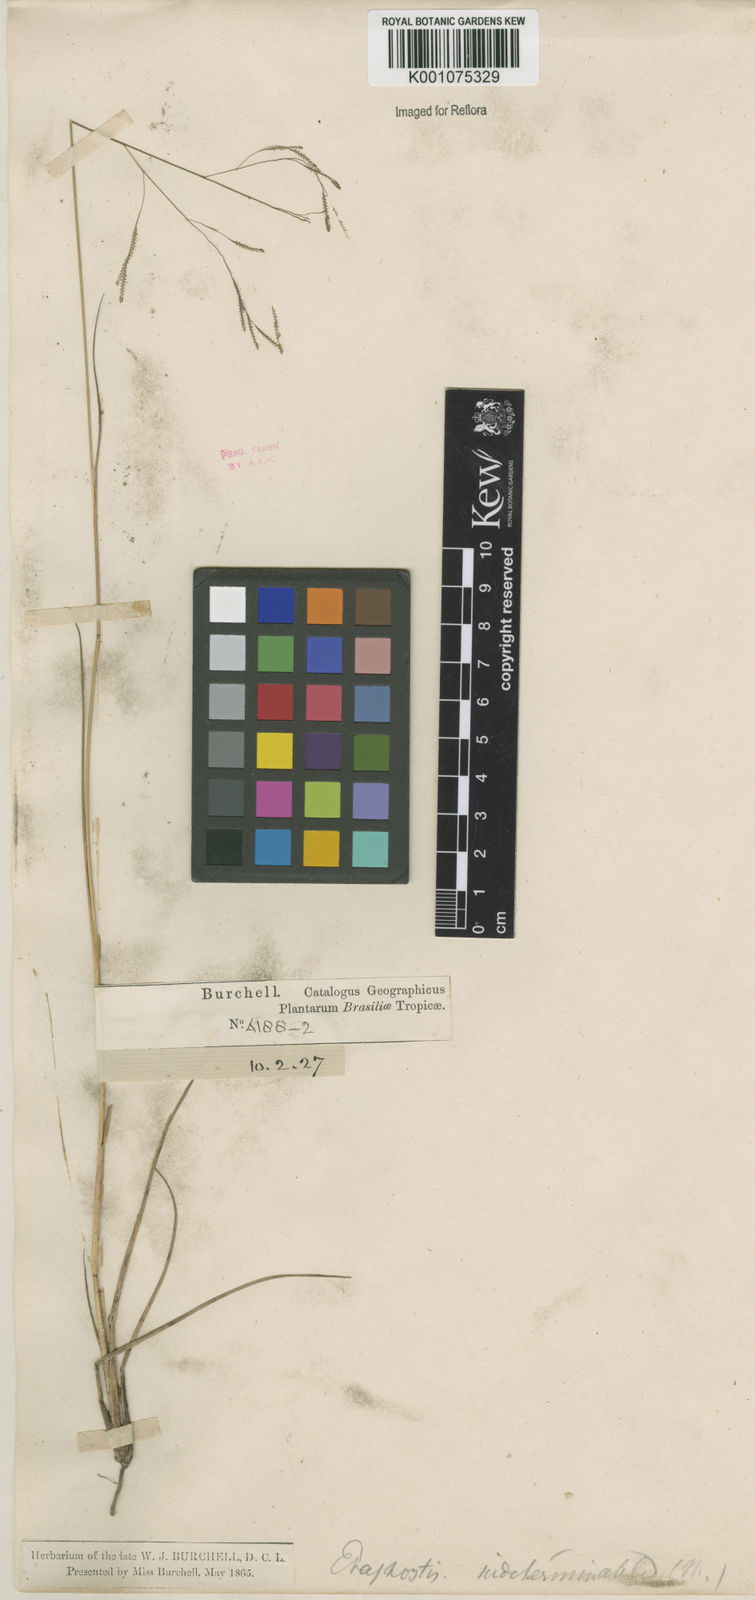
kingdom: Plantae
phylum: Tracheophyta
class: Liliopsida
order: Poales
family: Poaceae
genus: Eragrostis
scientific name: Eragrostis bahiensis
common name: Bahia lovegrass
